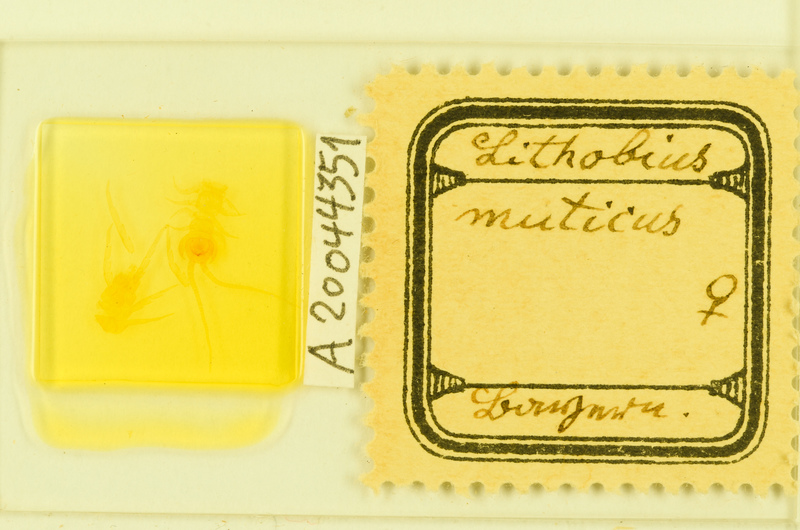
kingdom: Animalia
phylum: Arthropoda
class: Chilopoda
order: Lithobiomorpha
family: Lithobiidae
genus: Lithobius
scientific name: Lithobius muticus
